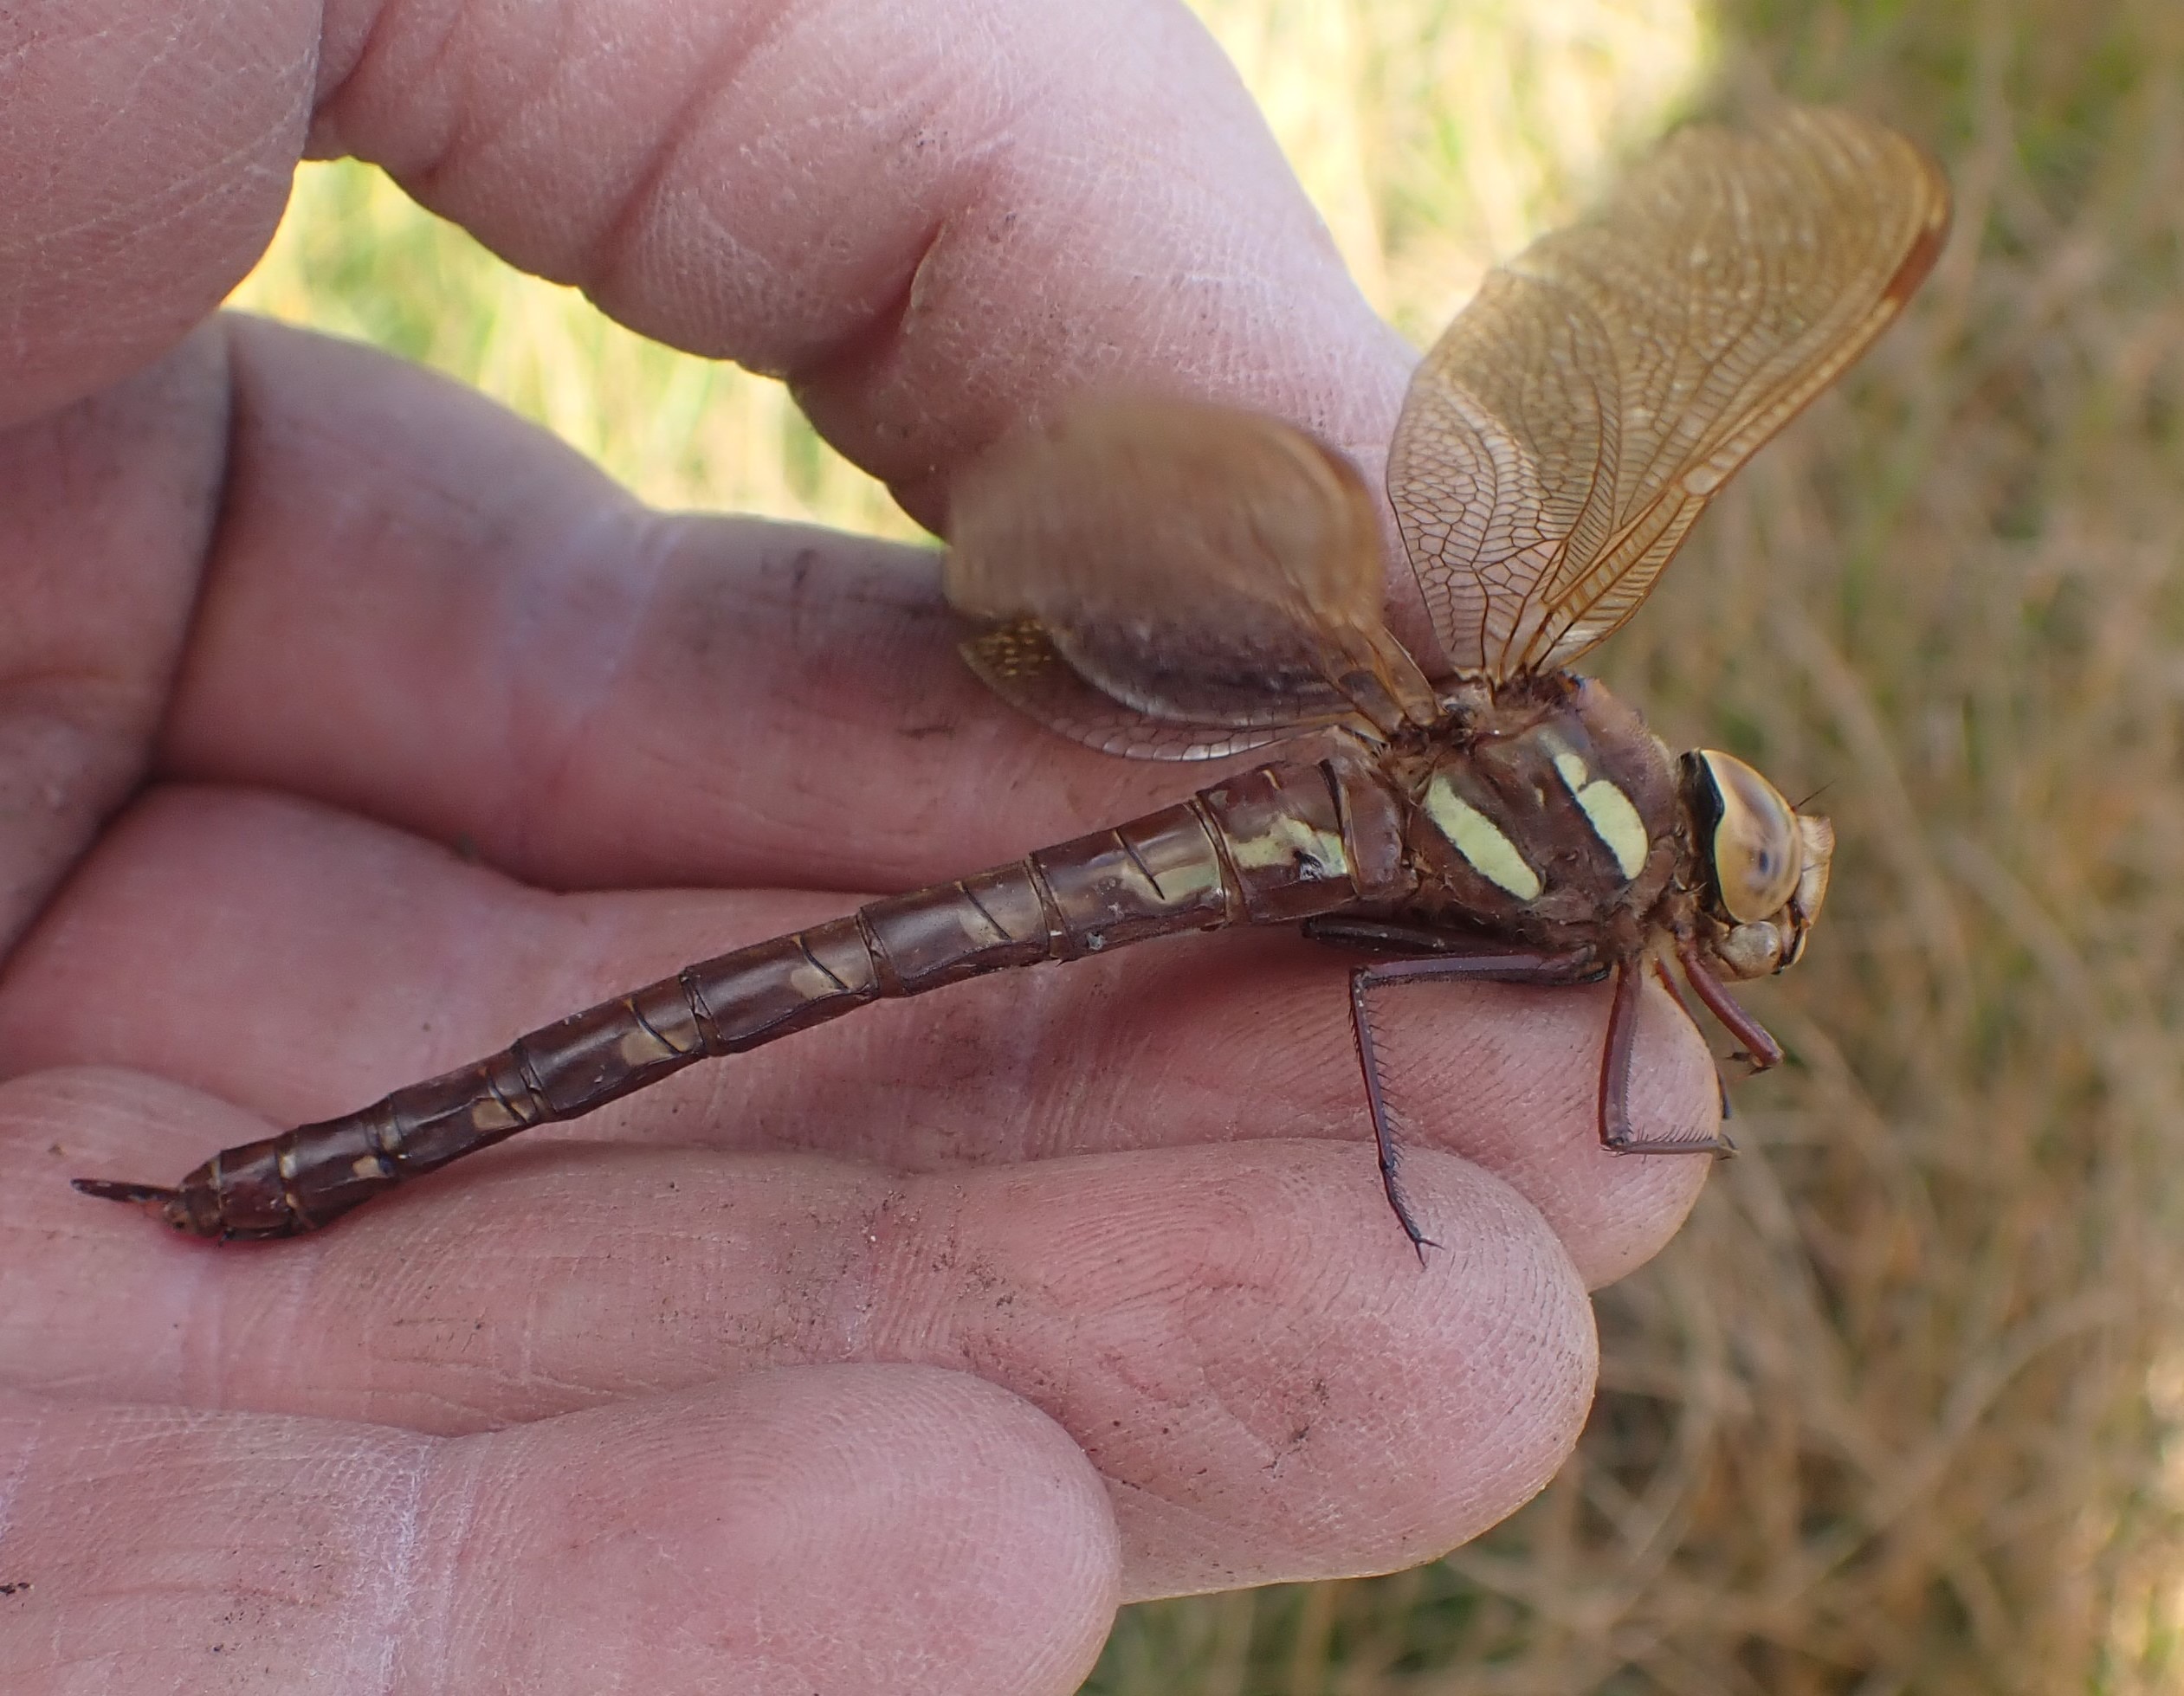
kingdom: Animalia
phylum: Arthropoda
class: Insecta
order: Odonata
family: Aeshnidae
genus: Aeshna
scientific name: Aeshna grandis
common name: Brun mosaikguldsmed
